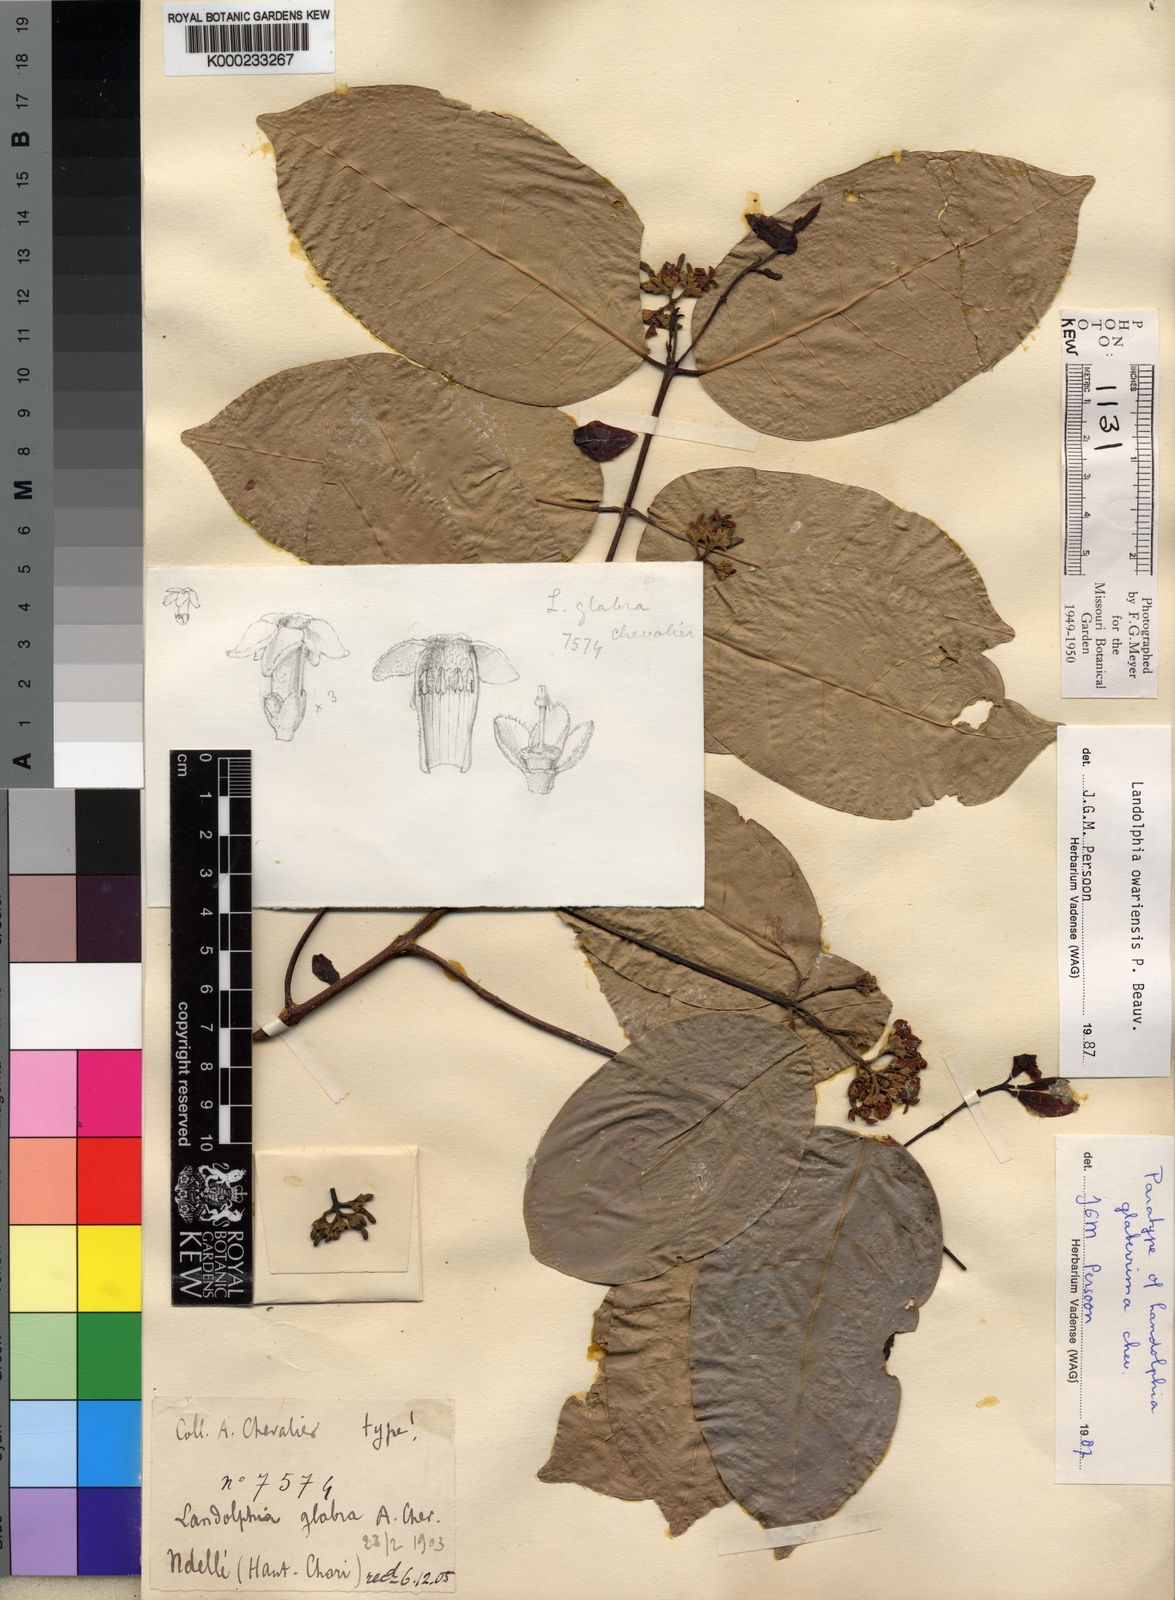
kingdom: Plantae
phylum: Tracheophyta
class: Magnoliopsida
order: Gentianales
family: Apocynaceae
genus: Landolphia
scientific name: Landolphia owariensis
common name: White-ball-rubber
